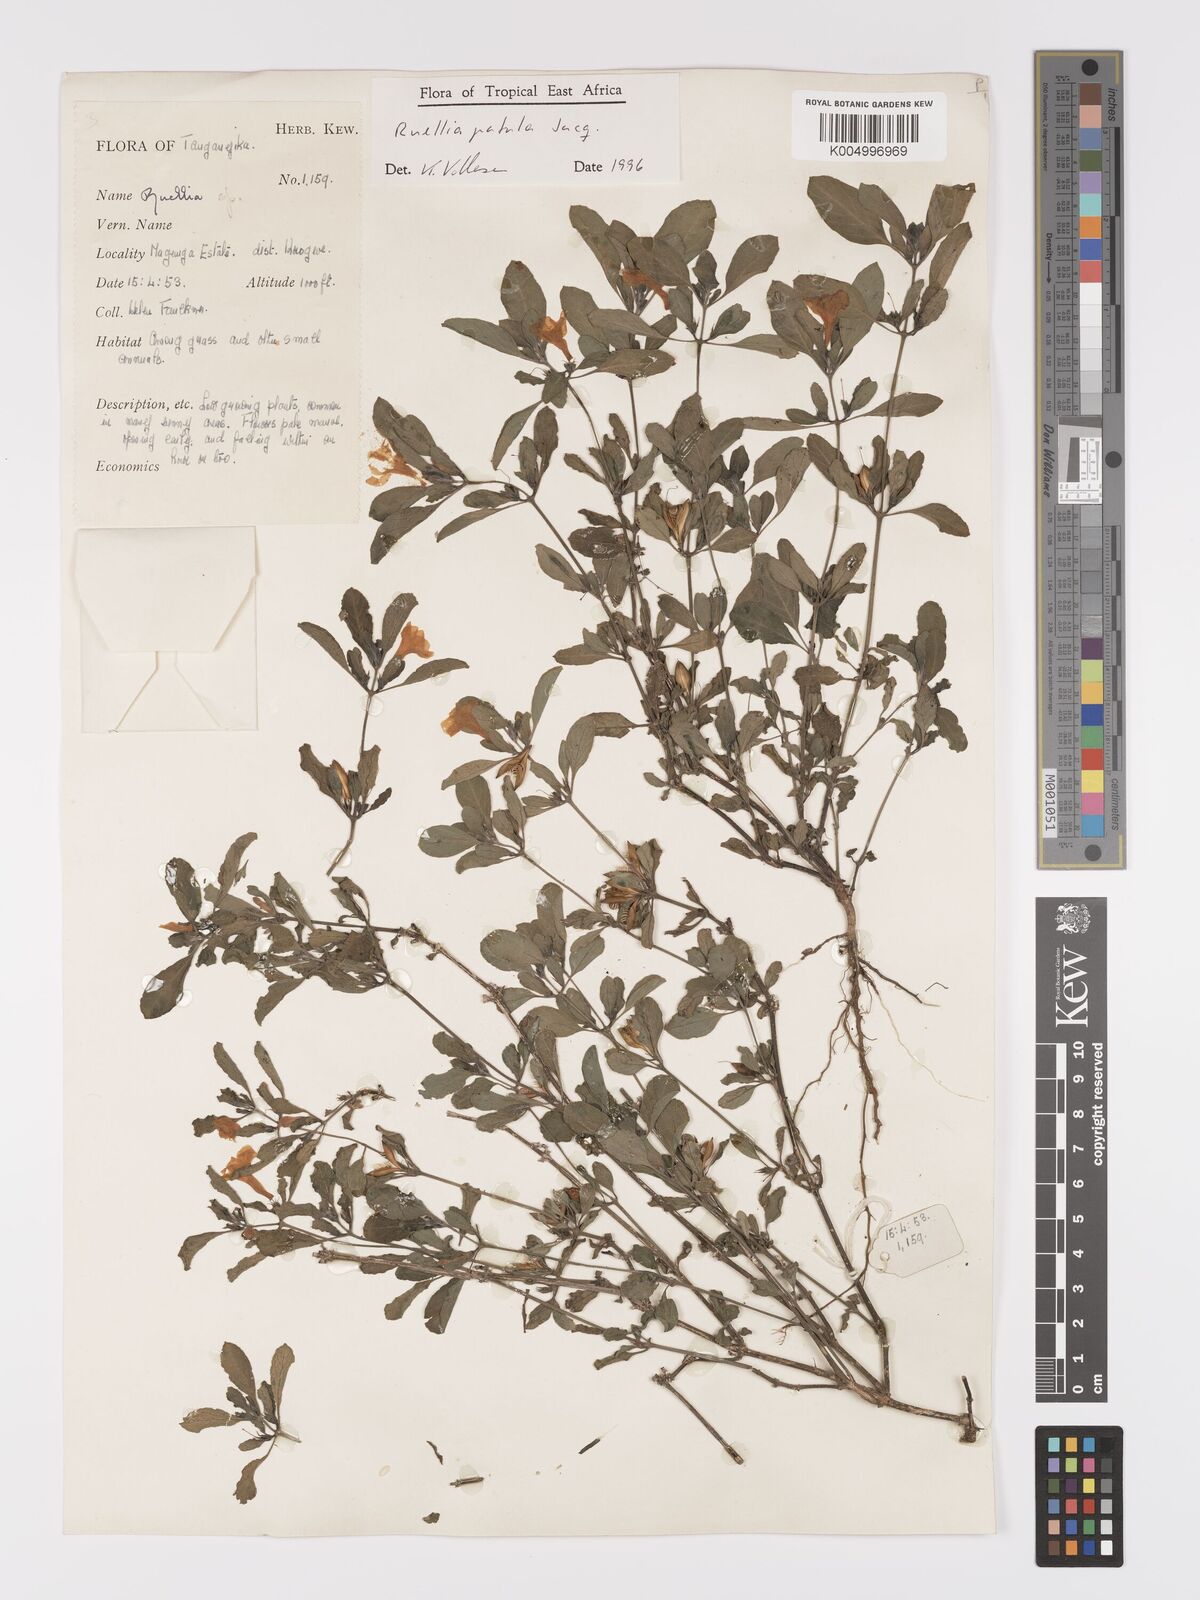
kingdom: Plantae
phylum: Tracheophyta
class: Magnoliopsida
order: Lamiales
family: Acanthaceae
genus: Ruellia
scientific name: Ruellia patula
